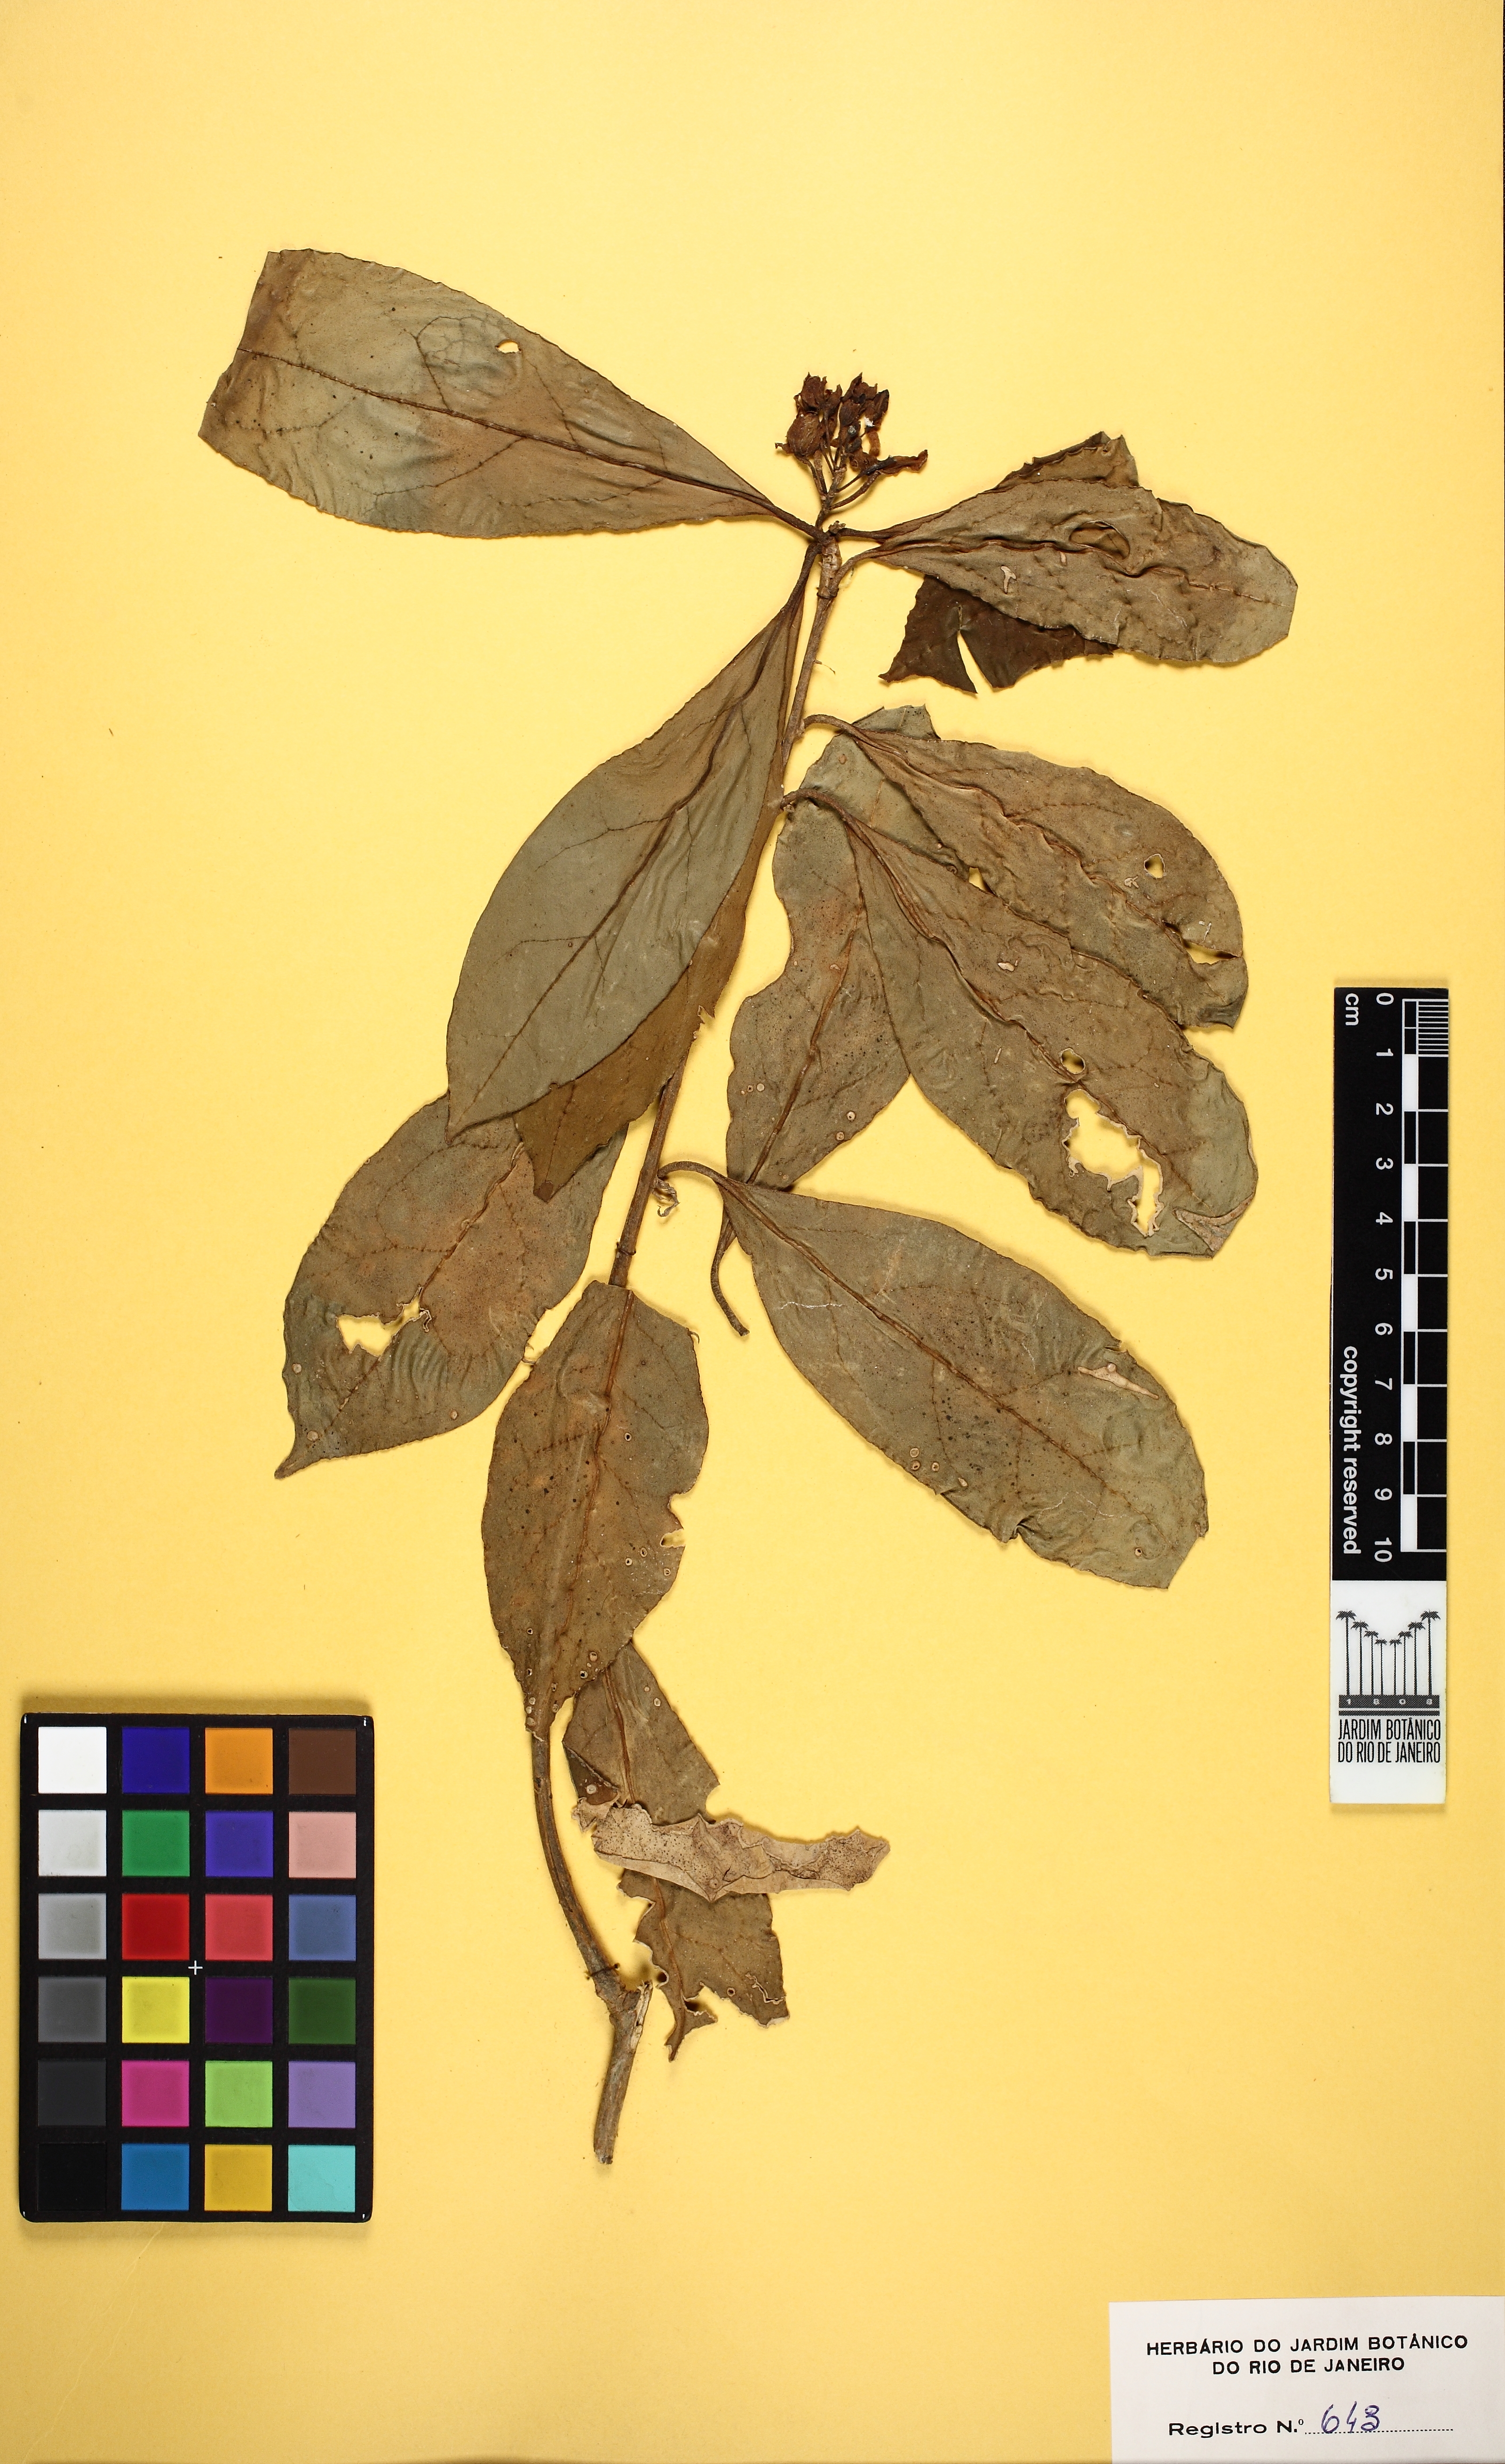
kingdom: Plantae
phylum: Tracheophyta
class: Magnoliopsida
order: Fabales
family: Polygalaceae
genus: Polygala
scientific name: Polygala paniculata
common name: Orosne
